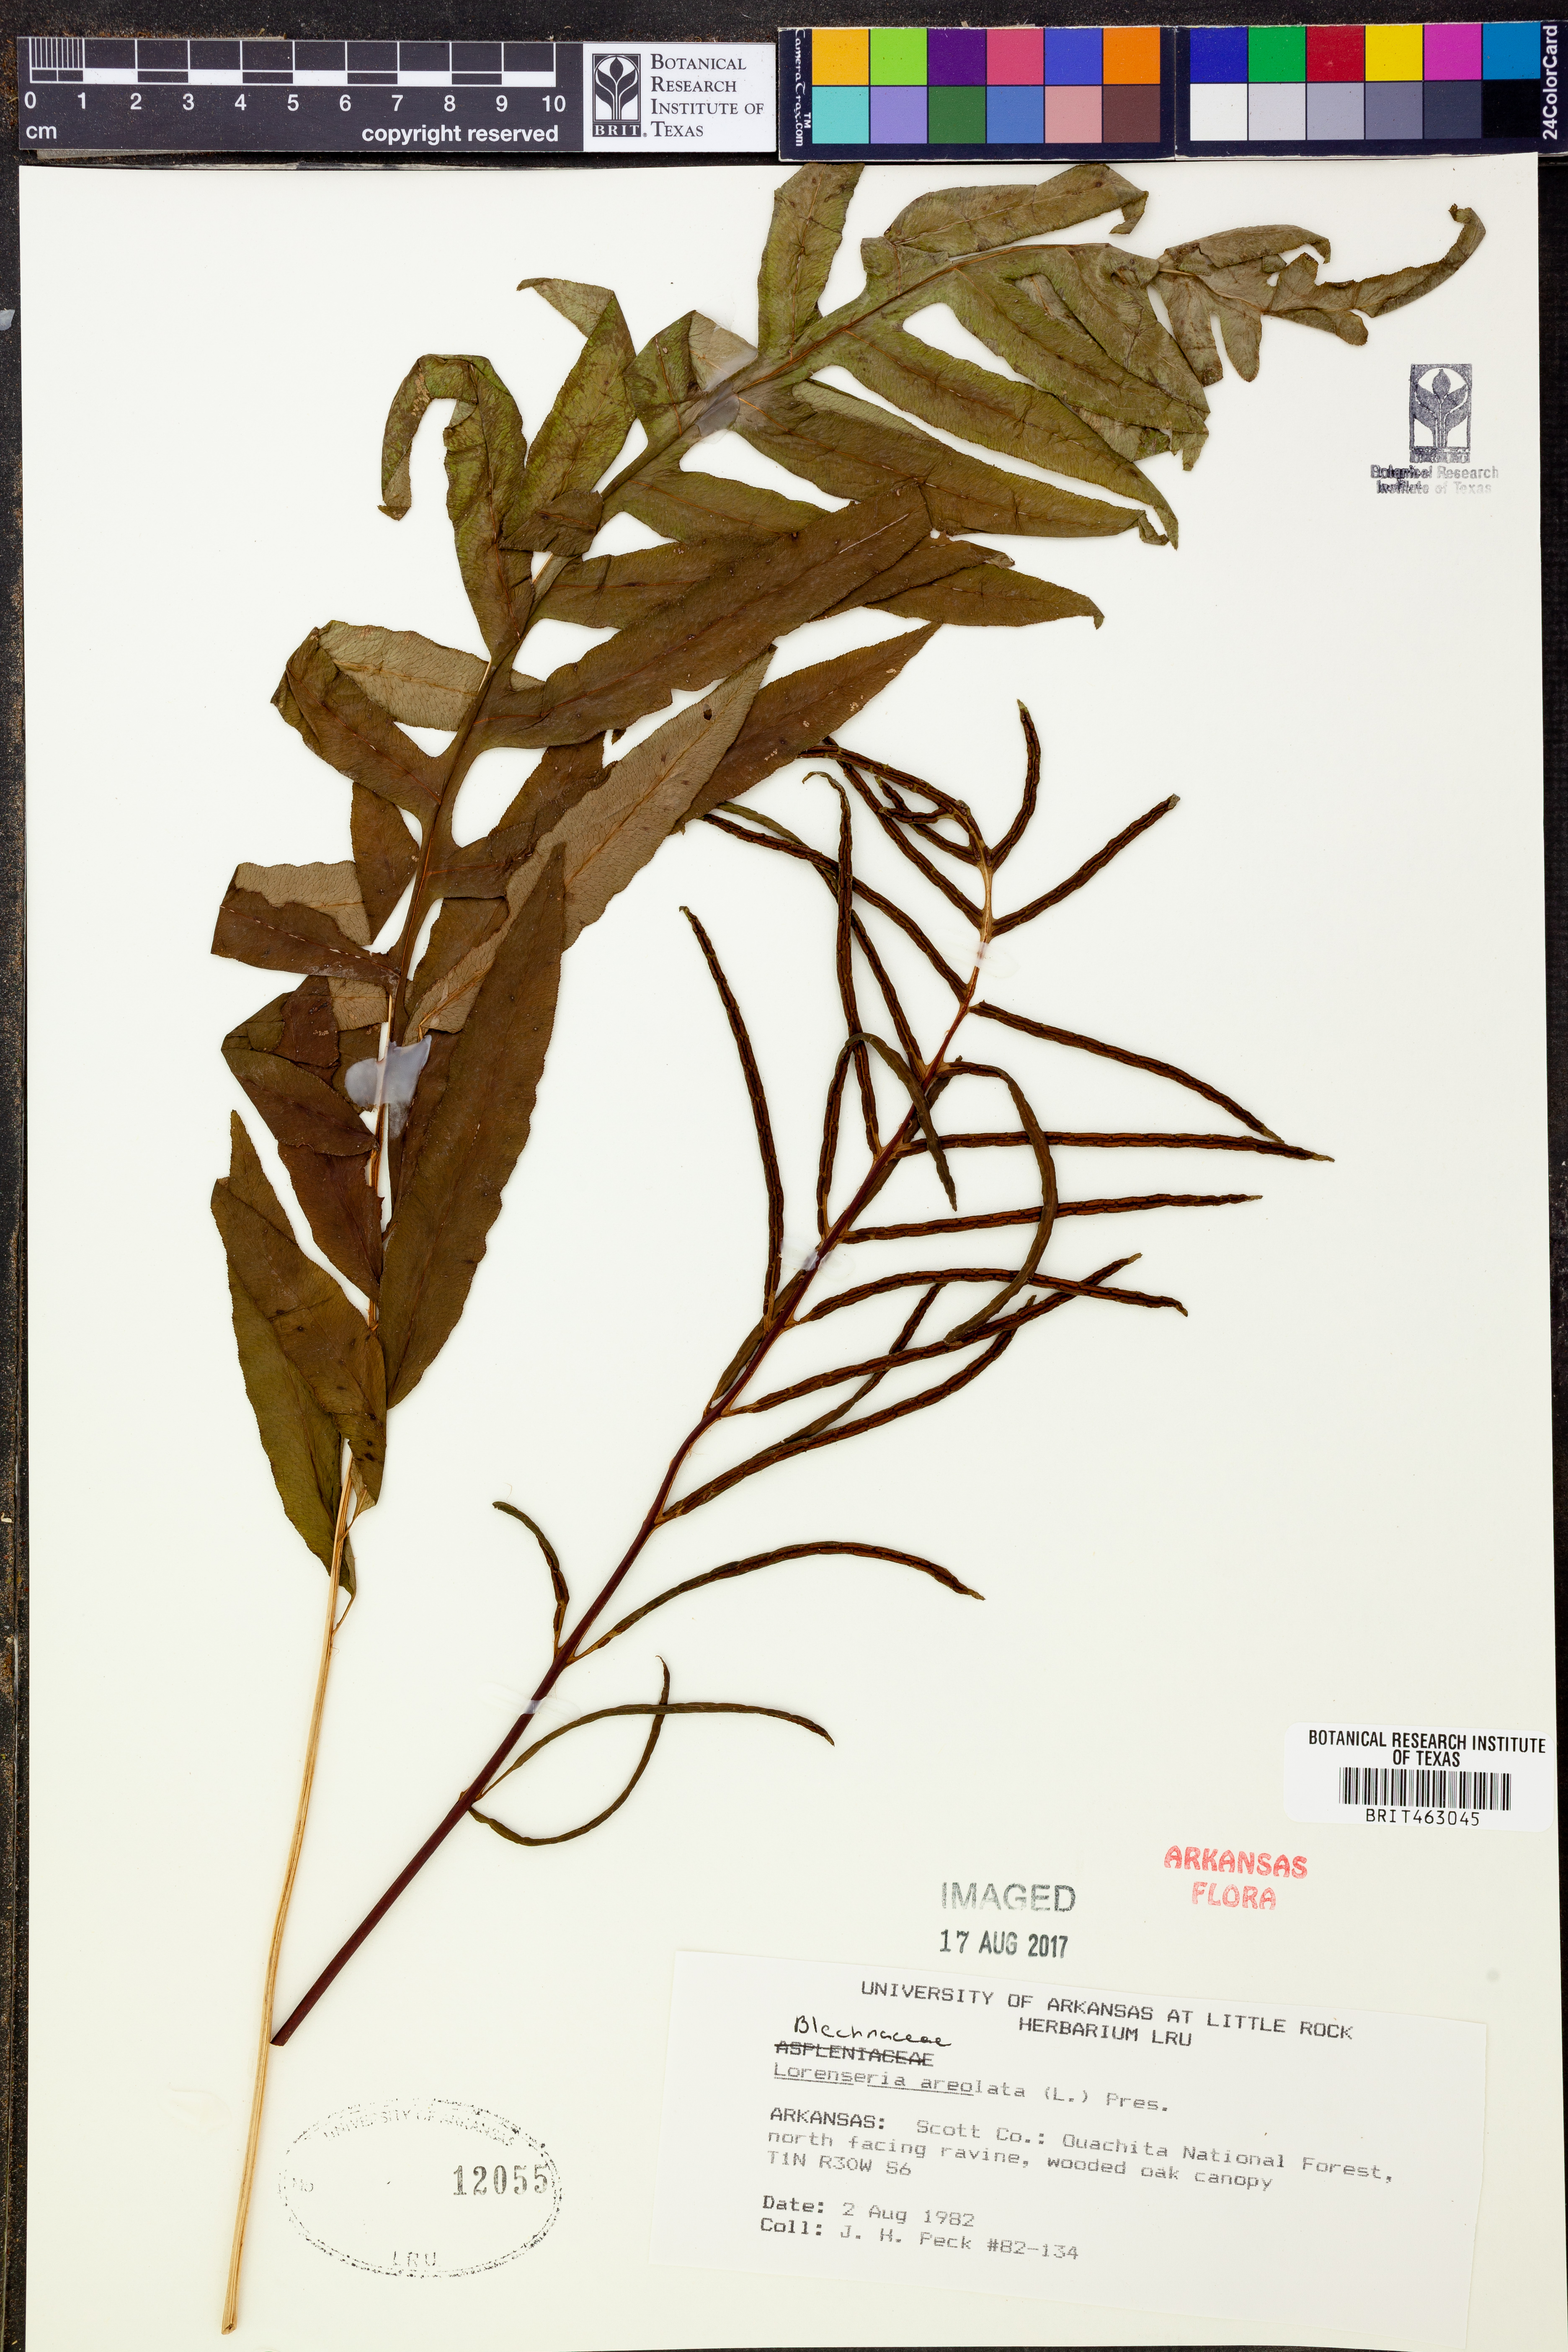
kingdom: Plantae
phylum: Tracheophyta
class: Polypodiopsida
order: Polypodiales
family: Blechnaceae
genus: Lorinseria
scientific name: Lorinseria areolata
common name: Dwarf chain fern
